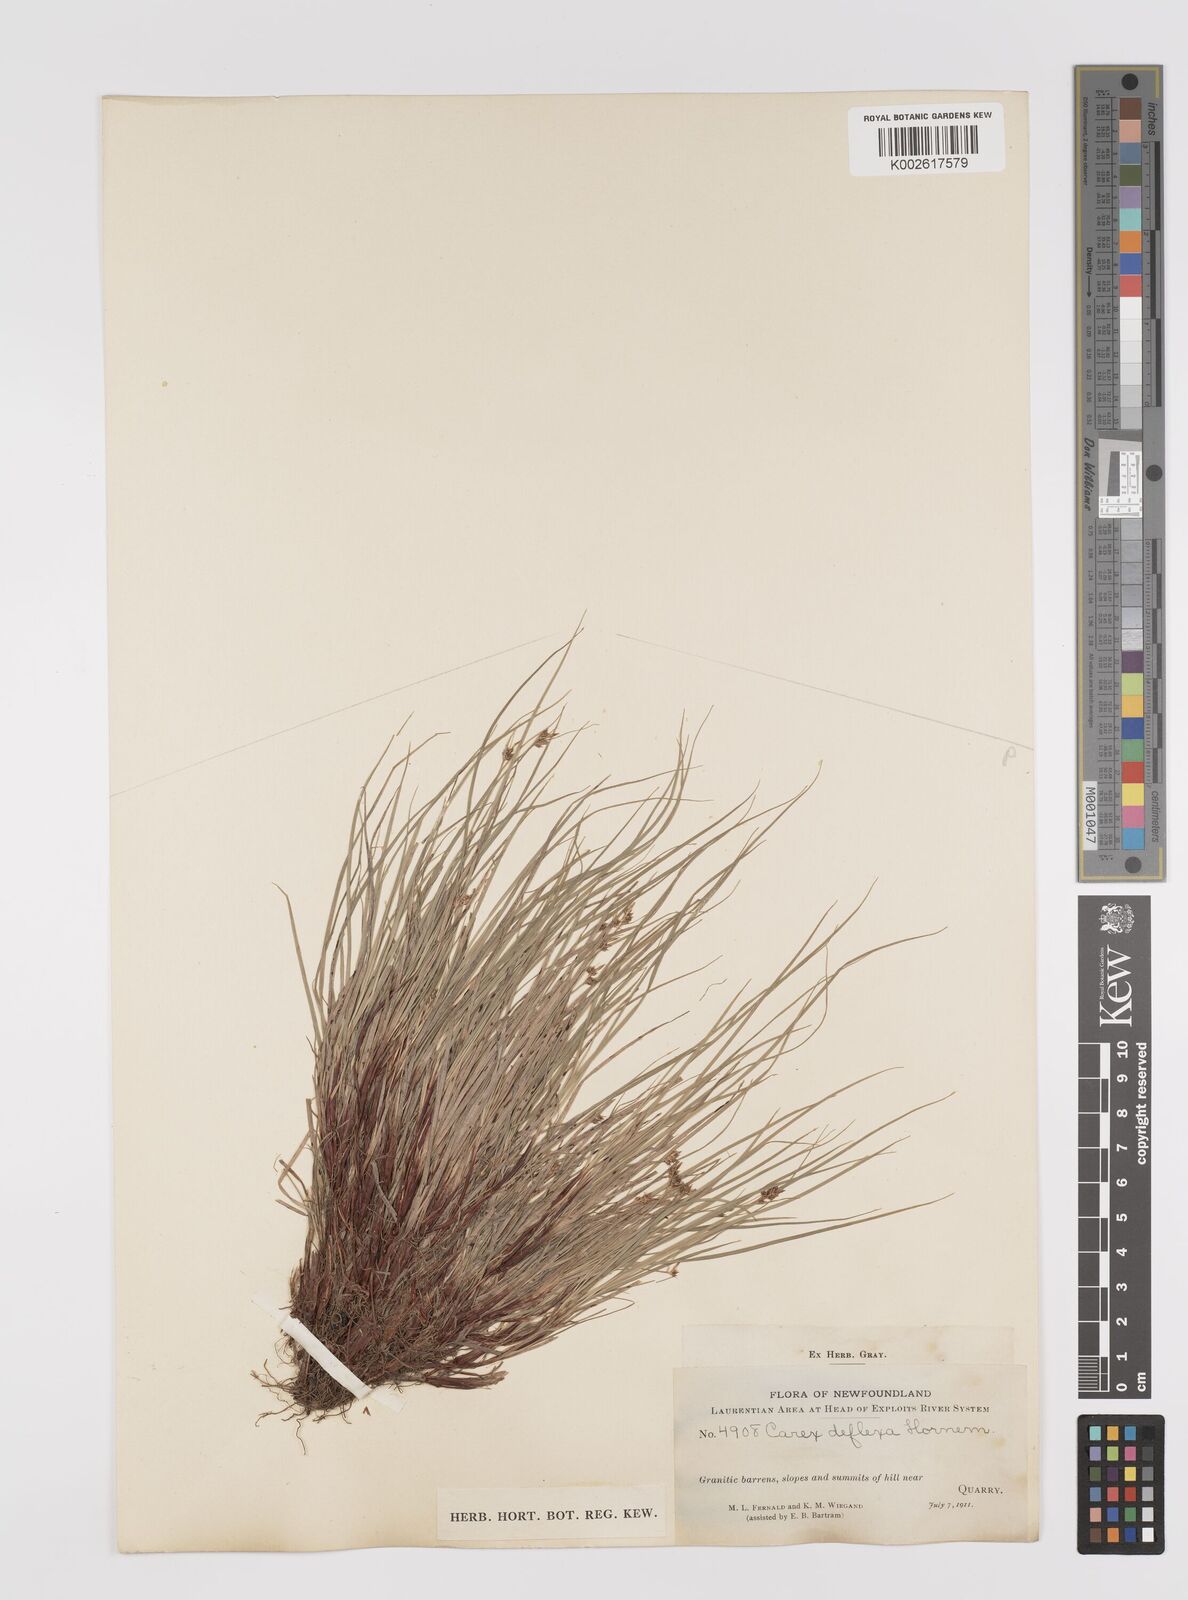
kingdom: Plantae
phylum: Tracheophyta
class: Liliopsida
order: Poales
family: Cyperaceae
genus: Carex
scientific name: Carex deflexa
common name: Bent northern sedge
